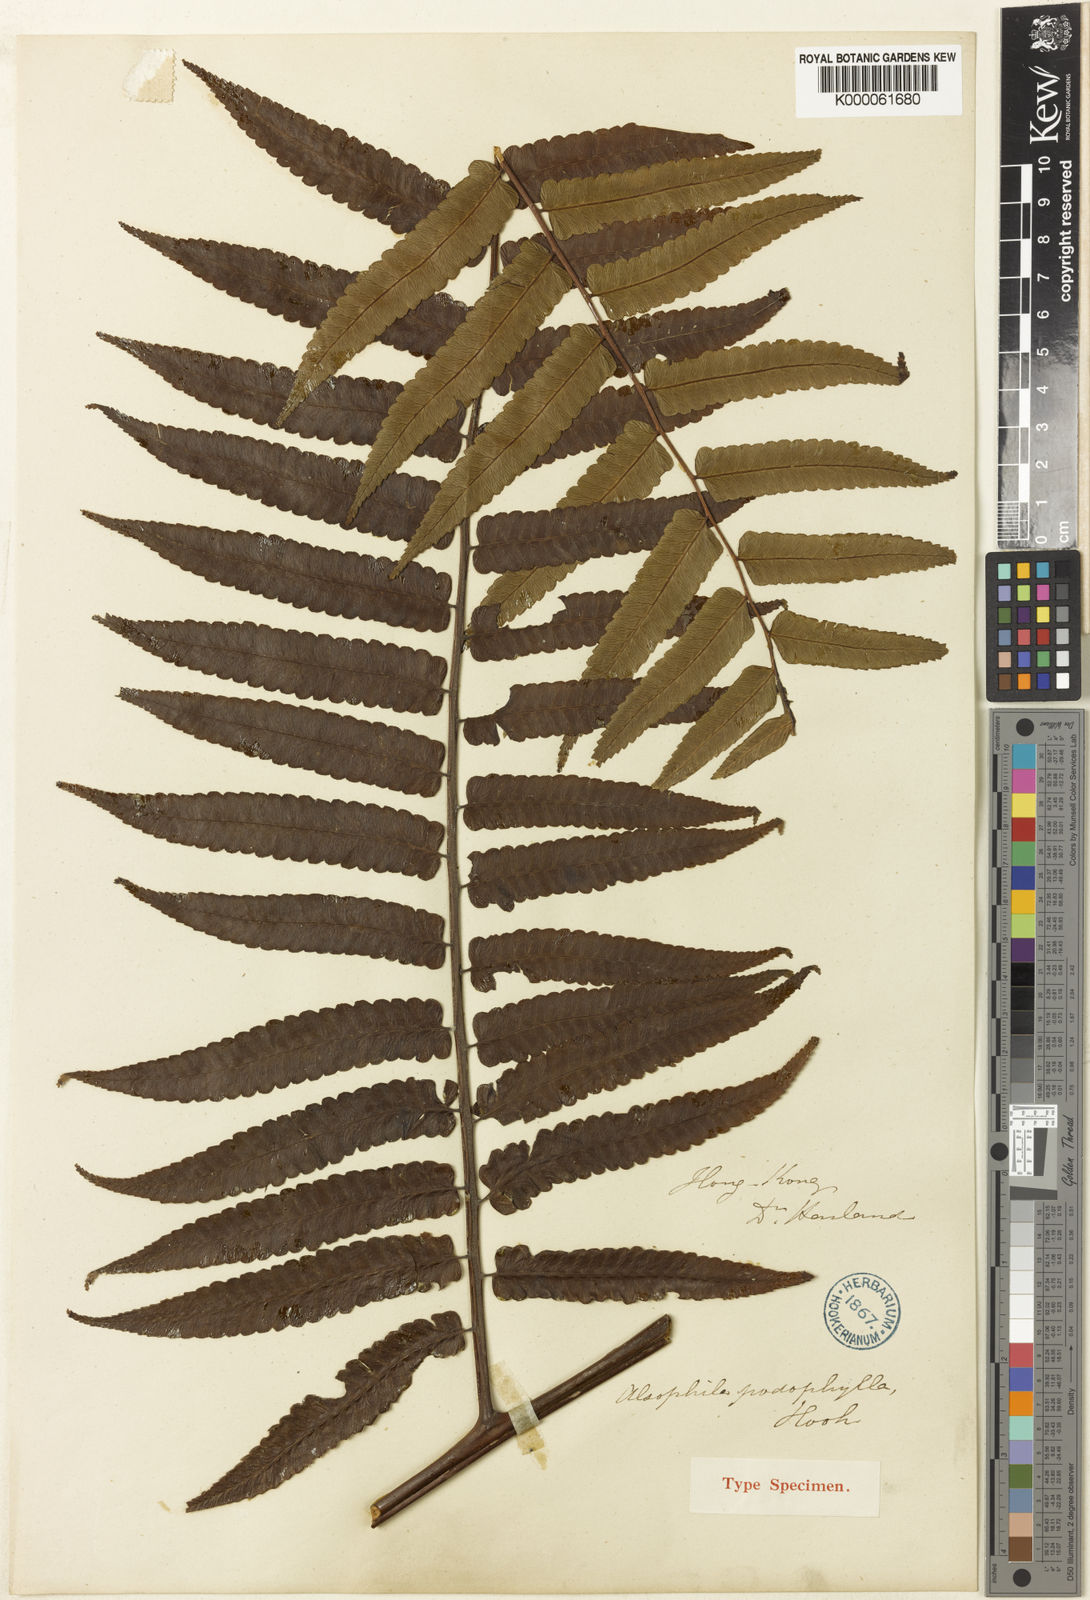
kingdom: Plantae
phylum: Tracheophyta
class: Polypodiopsida
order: Cyatheales
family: Cyatheaceae
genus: Gymnosphaera
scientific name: Gymnosphaera podophylla
